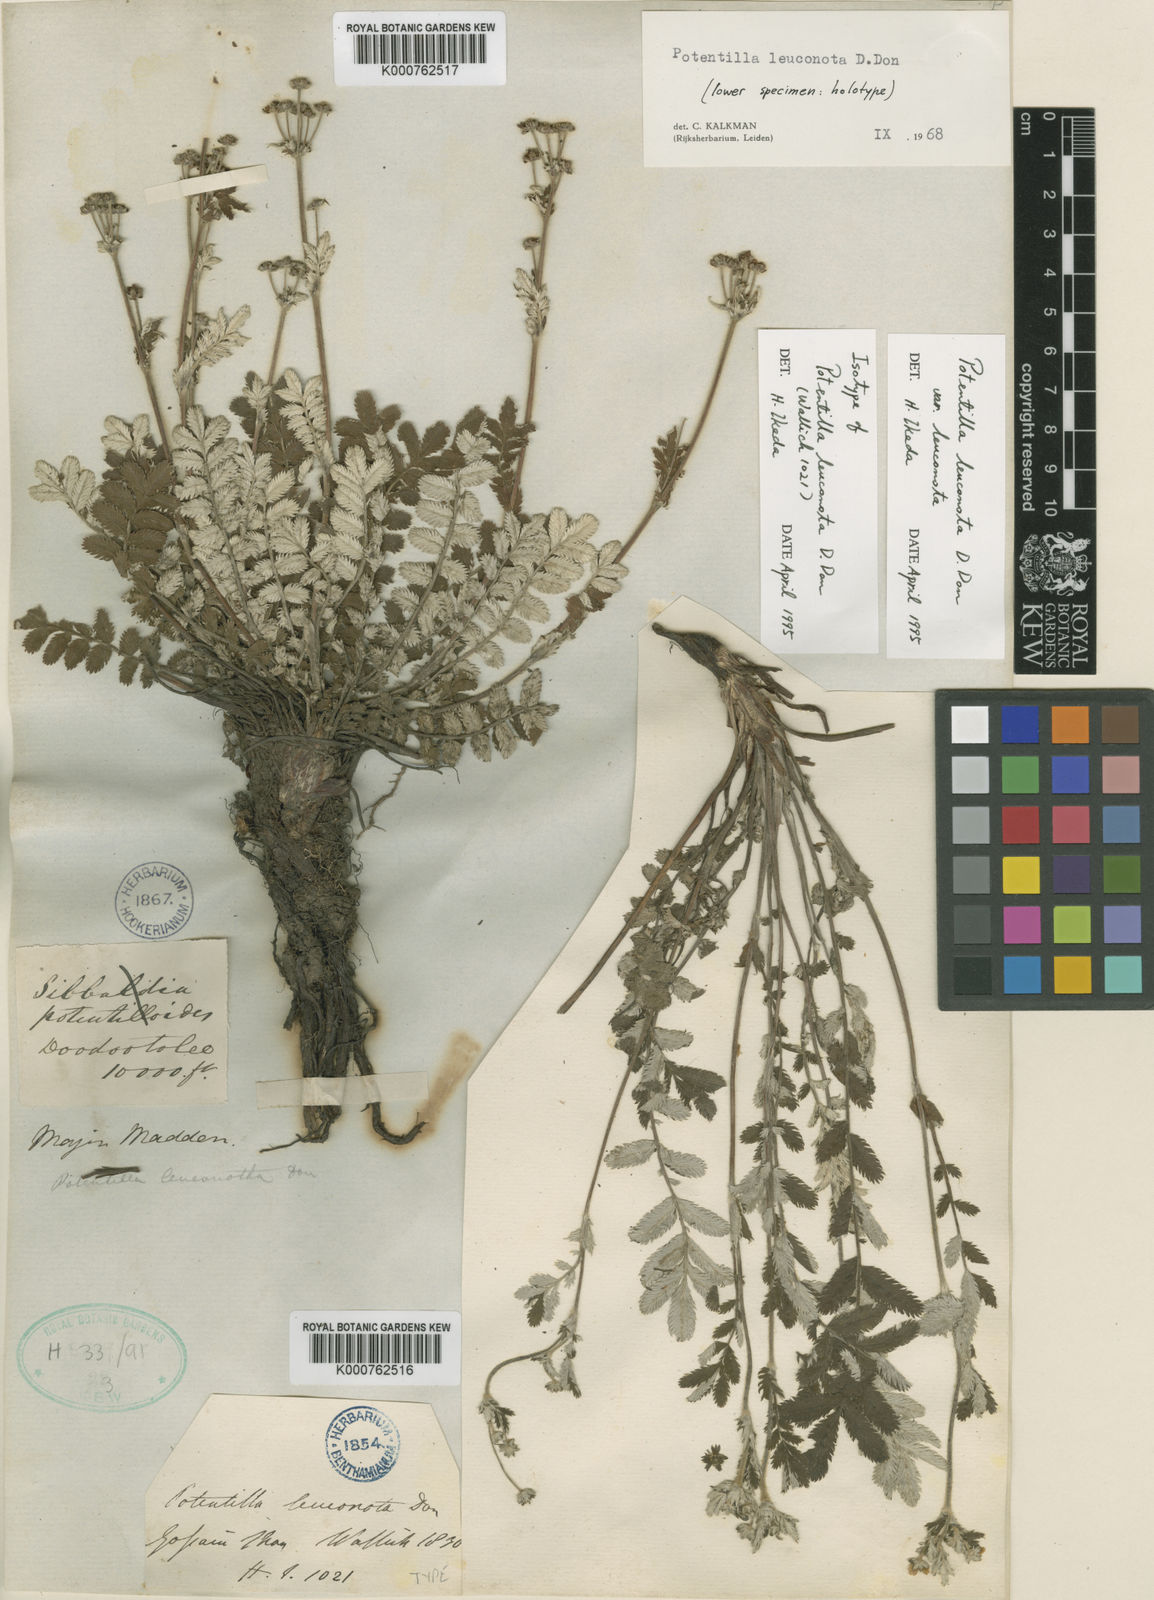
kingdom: Plantae
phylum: Tracheophyta
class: Magnoliopsida
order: Rosales
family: Rosaceae
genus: Argentina
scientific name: Argentina leuconota
